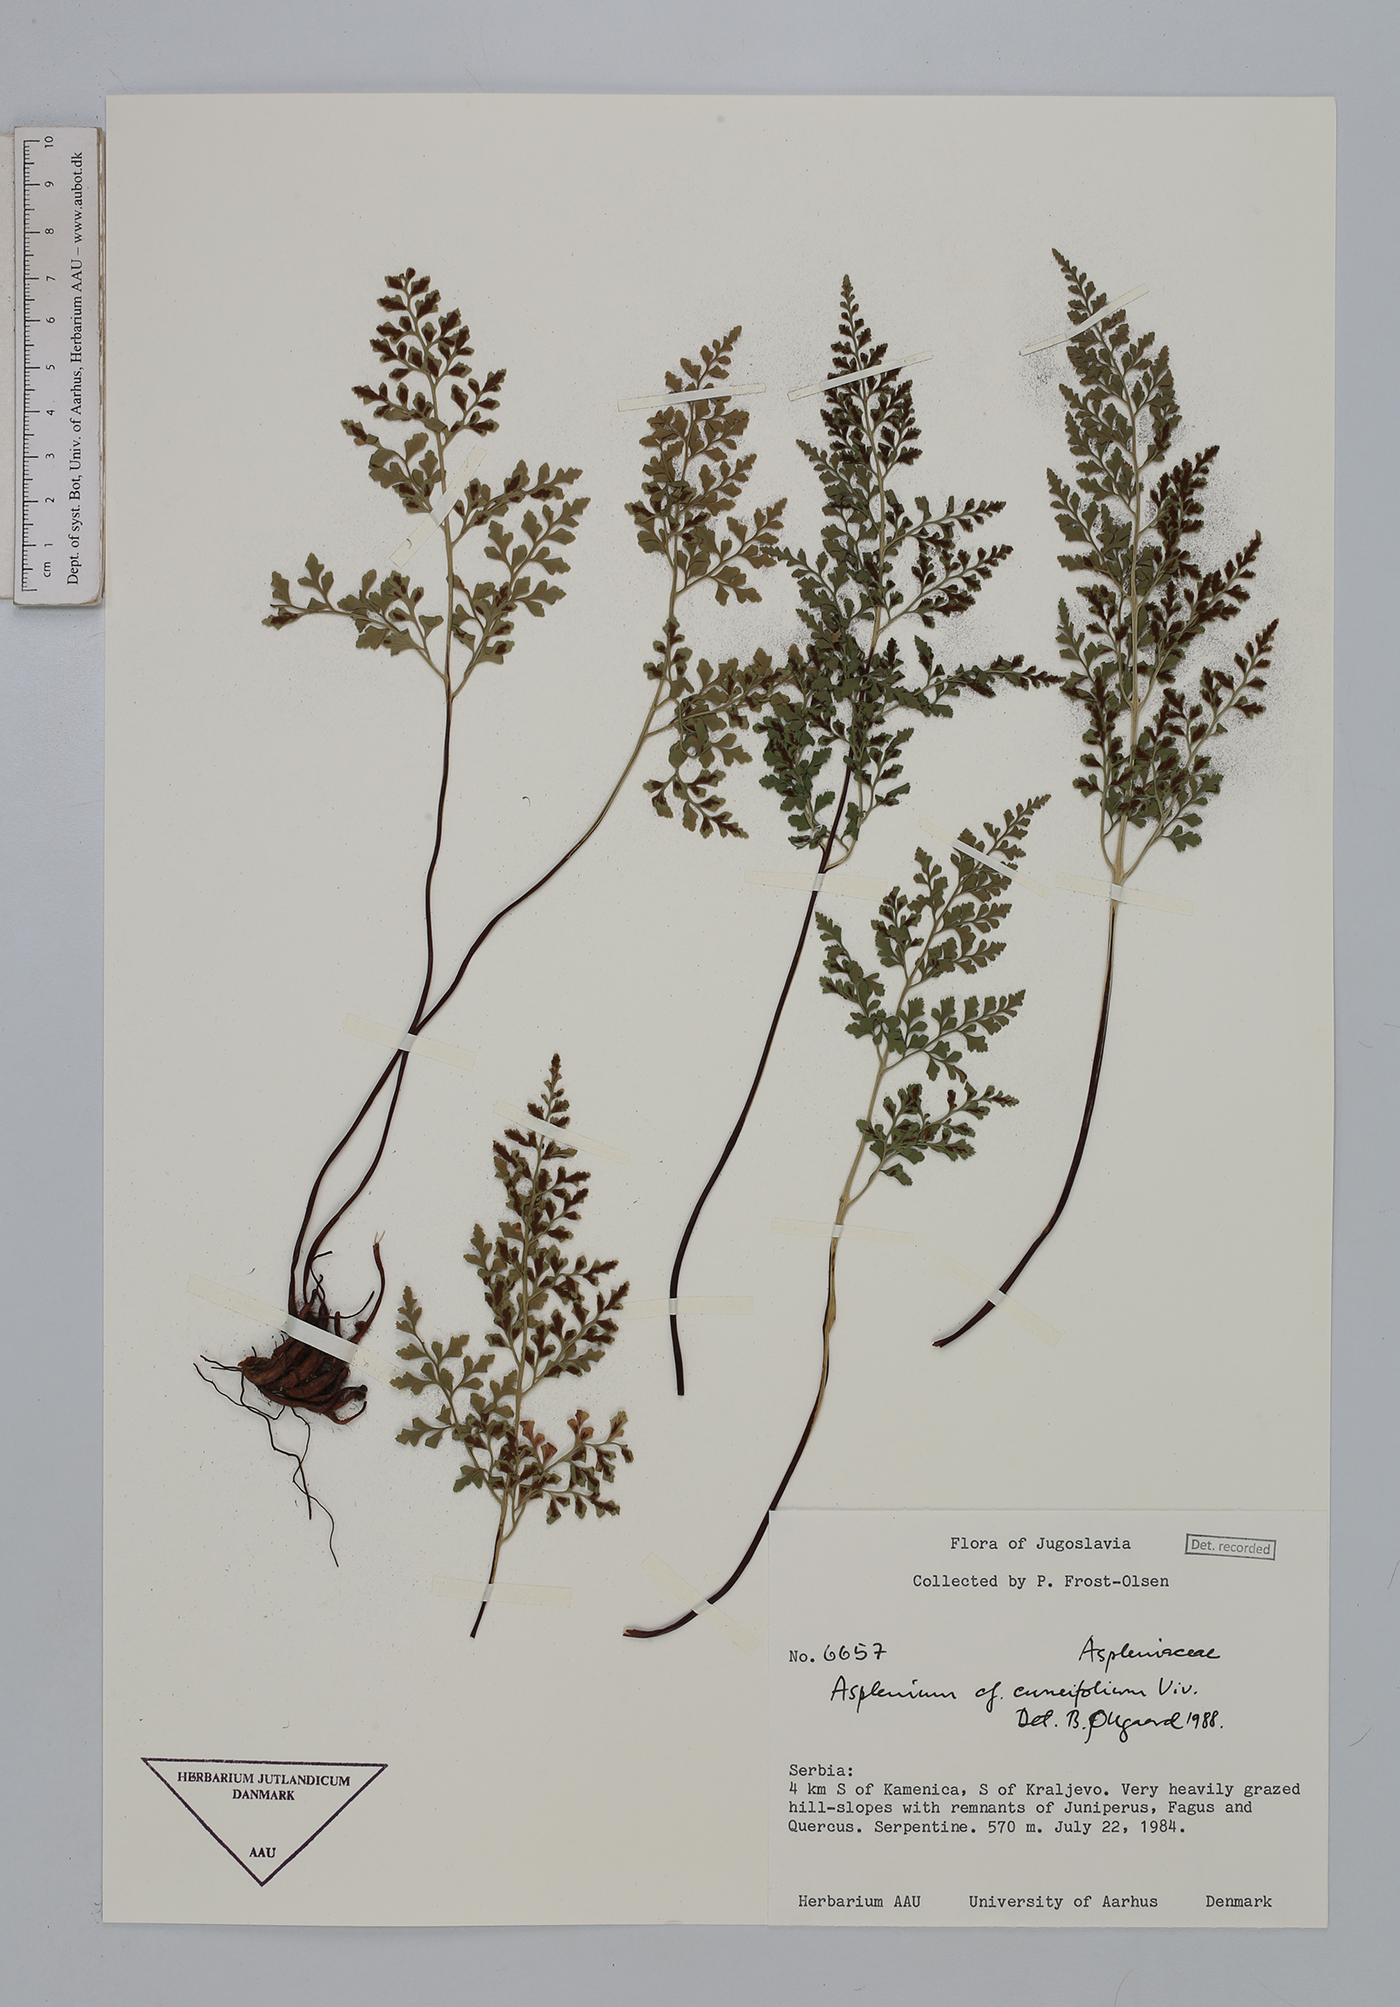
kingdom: Plantae
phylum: Tracheophyta
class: Polypodiopsida
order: Polypodiales
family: Aspleniaceae
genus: Asplenium
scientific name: Asplenium cuneifolium
